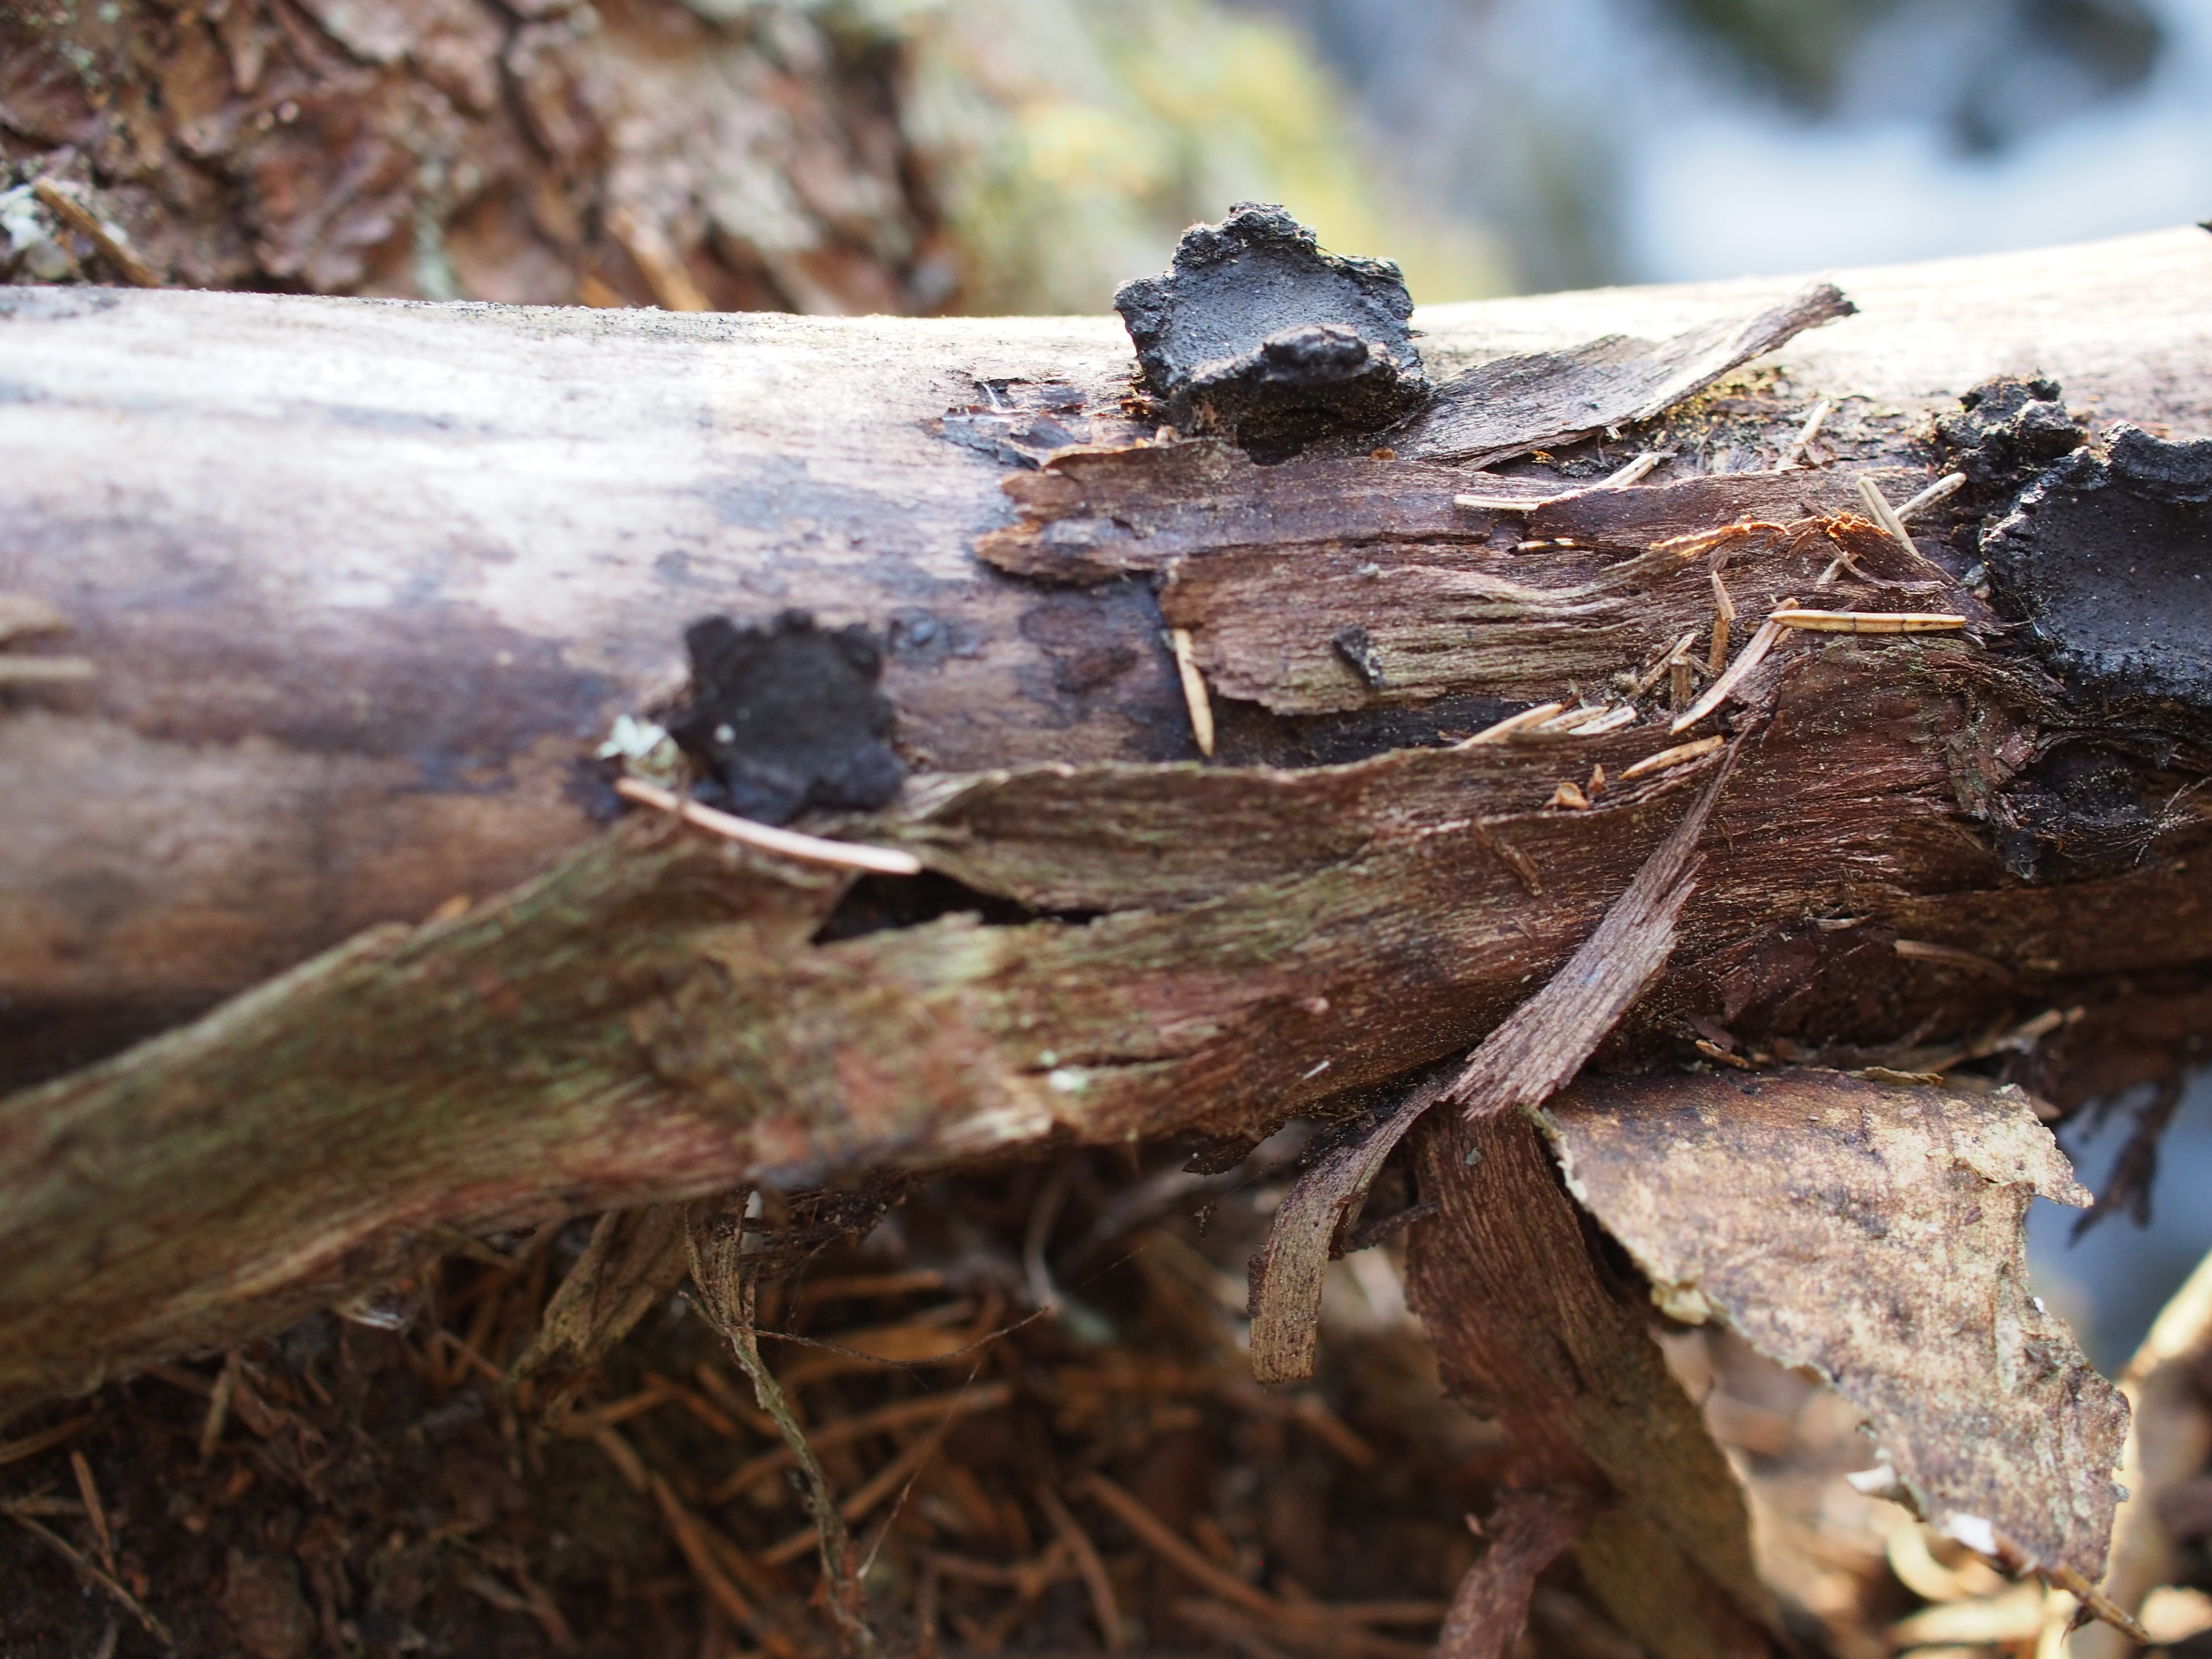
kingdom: Fungi
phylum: Ascomycota
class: Sordariomycetes
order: Xylariales
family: Graphostromataceae
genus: Biscogniauxia
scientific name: Biscogniauxia repanda
